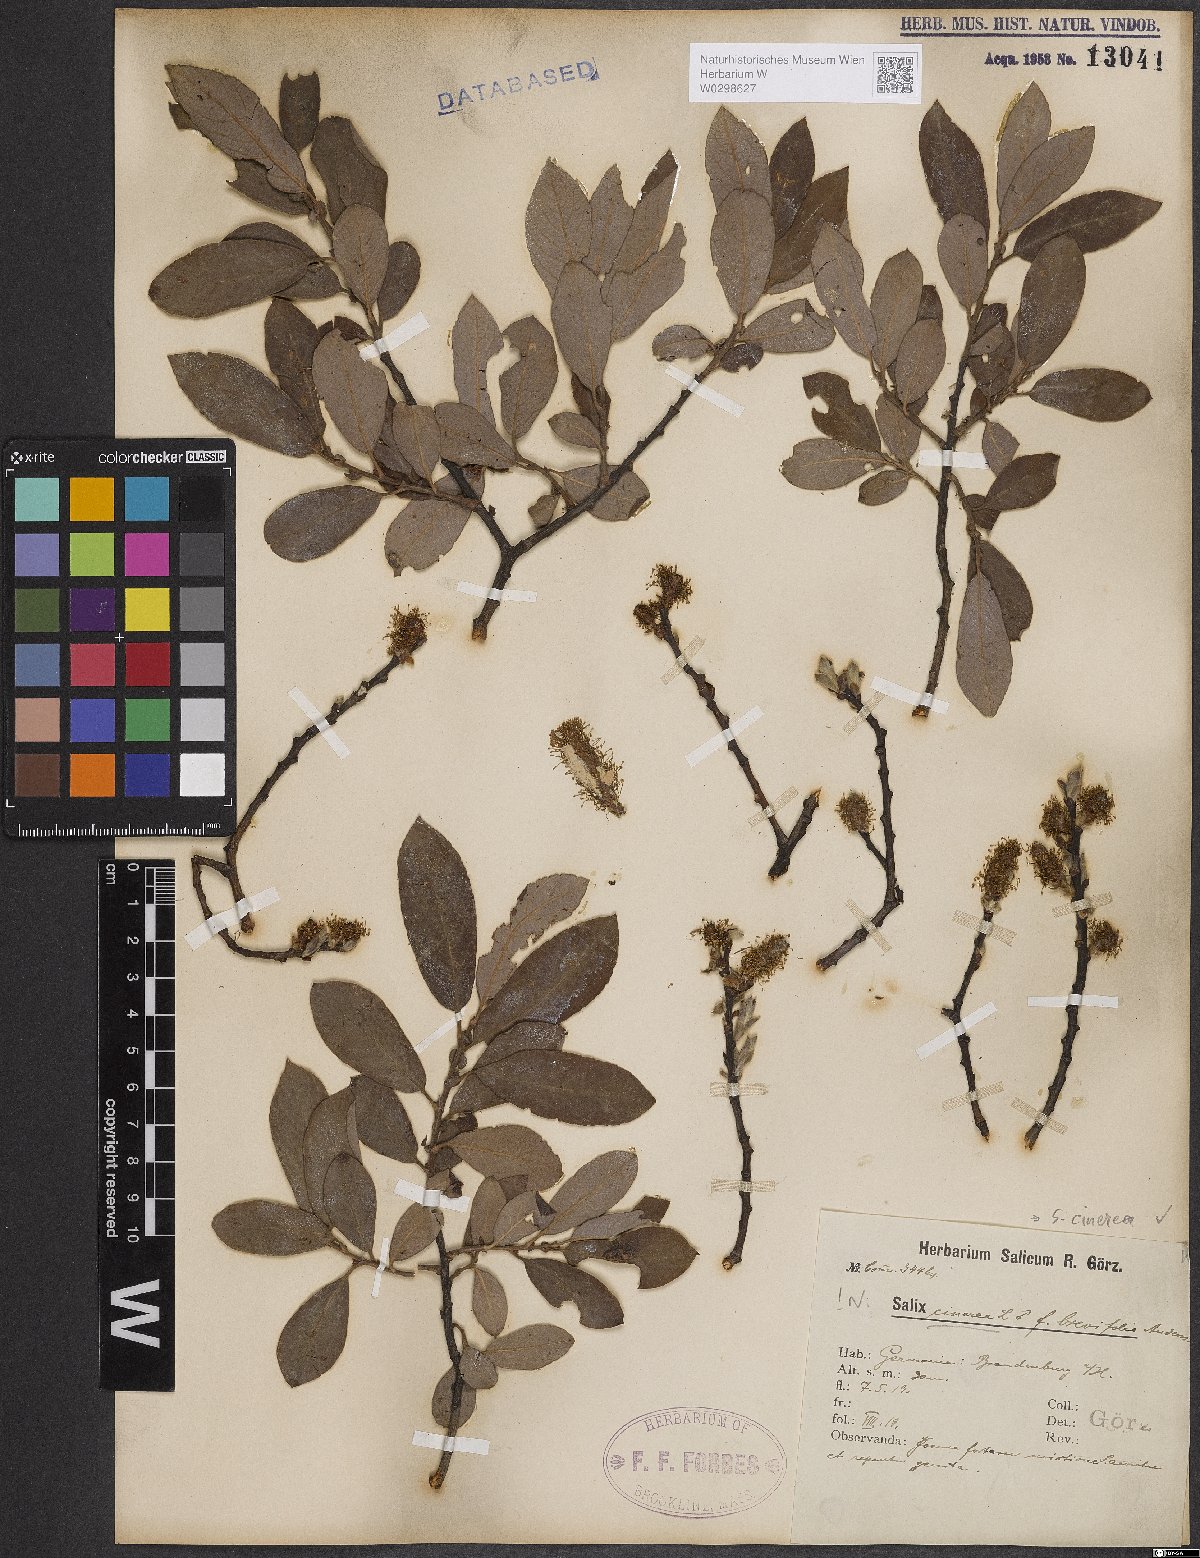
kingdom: Plantae
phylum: Tracheophyta
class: Magnoliopsida
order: Malpighiales
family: Salicaceae
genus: Salix
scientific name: Salix cinerea
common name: Common sallow
